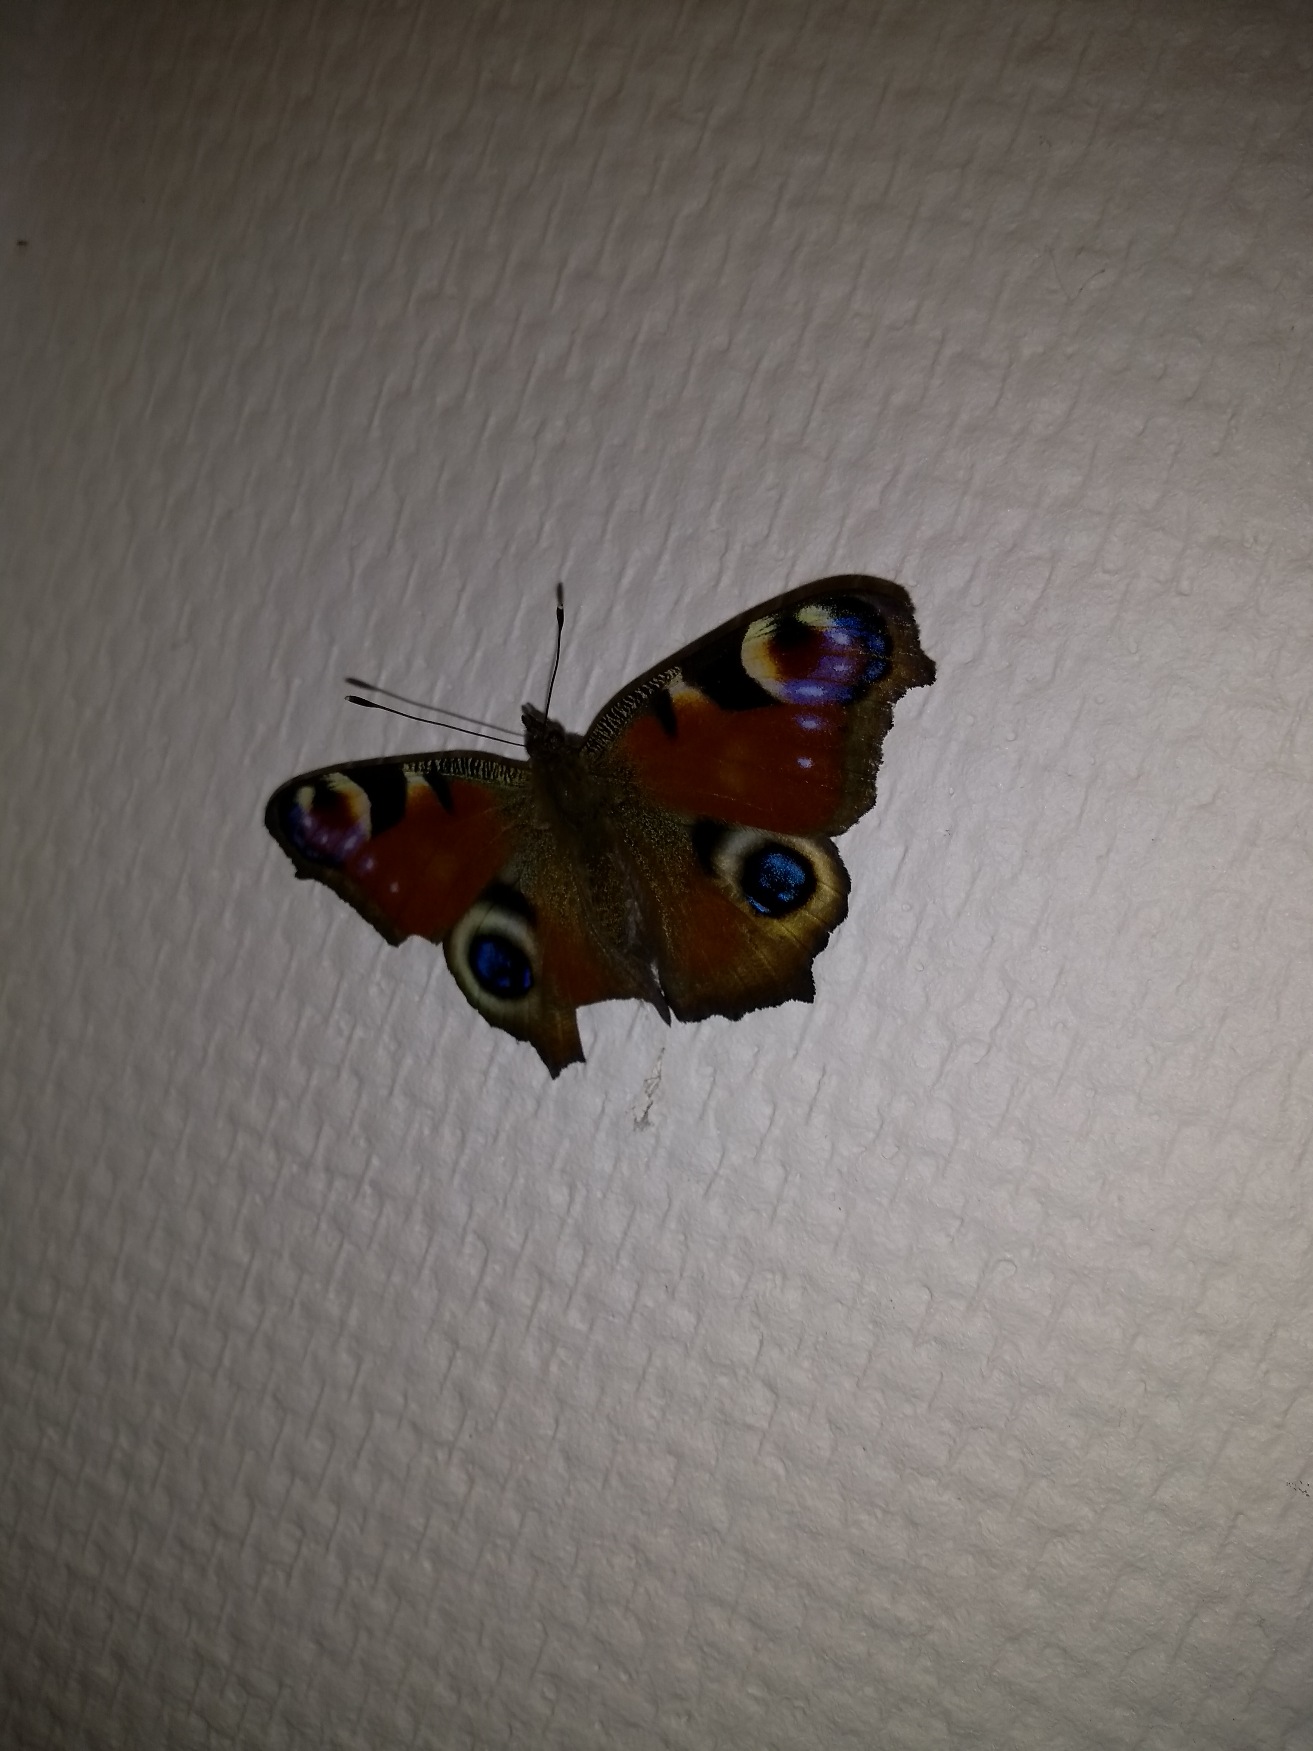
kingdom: Animalia
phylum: Arthropoda
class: Insecta
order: Lepidoptera
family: Nymphalidae
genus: Aglais
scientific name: Aglais io
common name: Dagpåfugleøje
